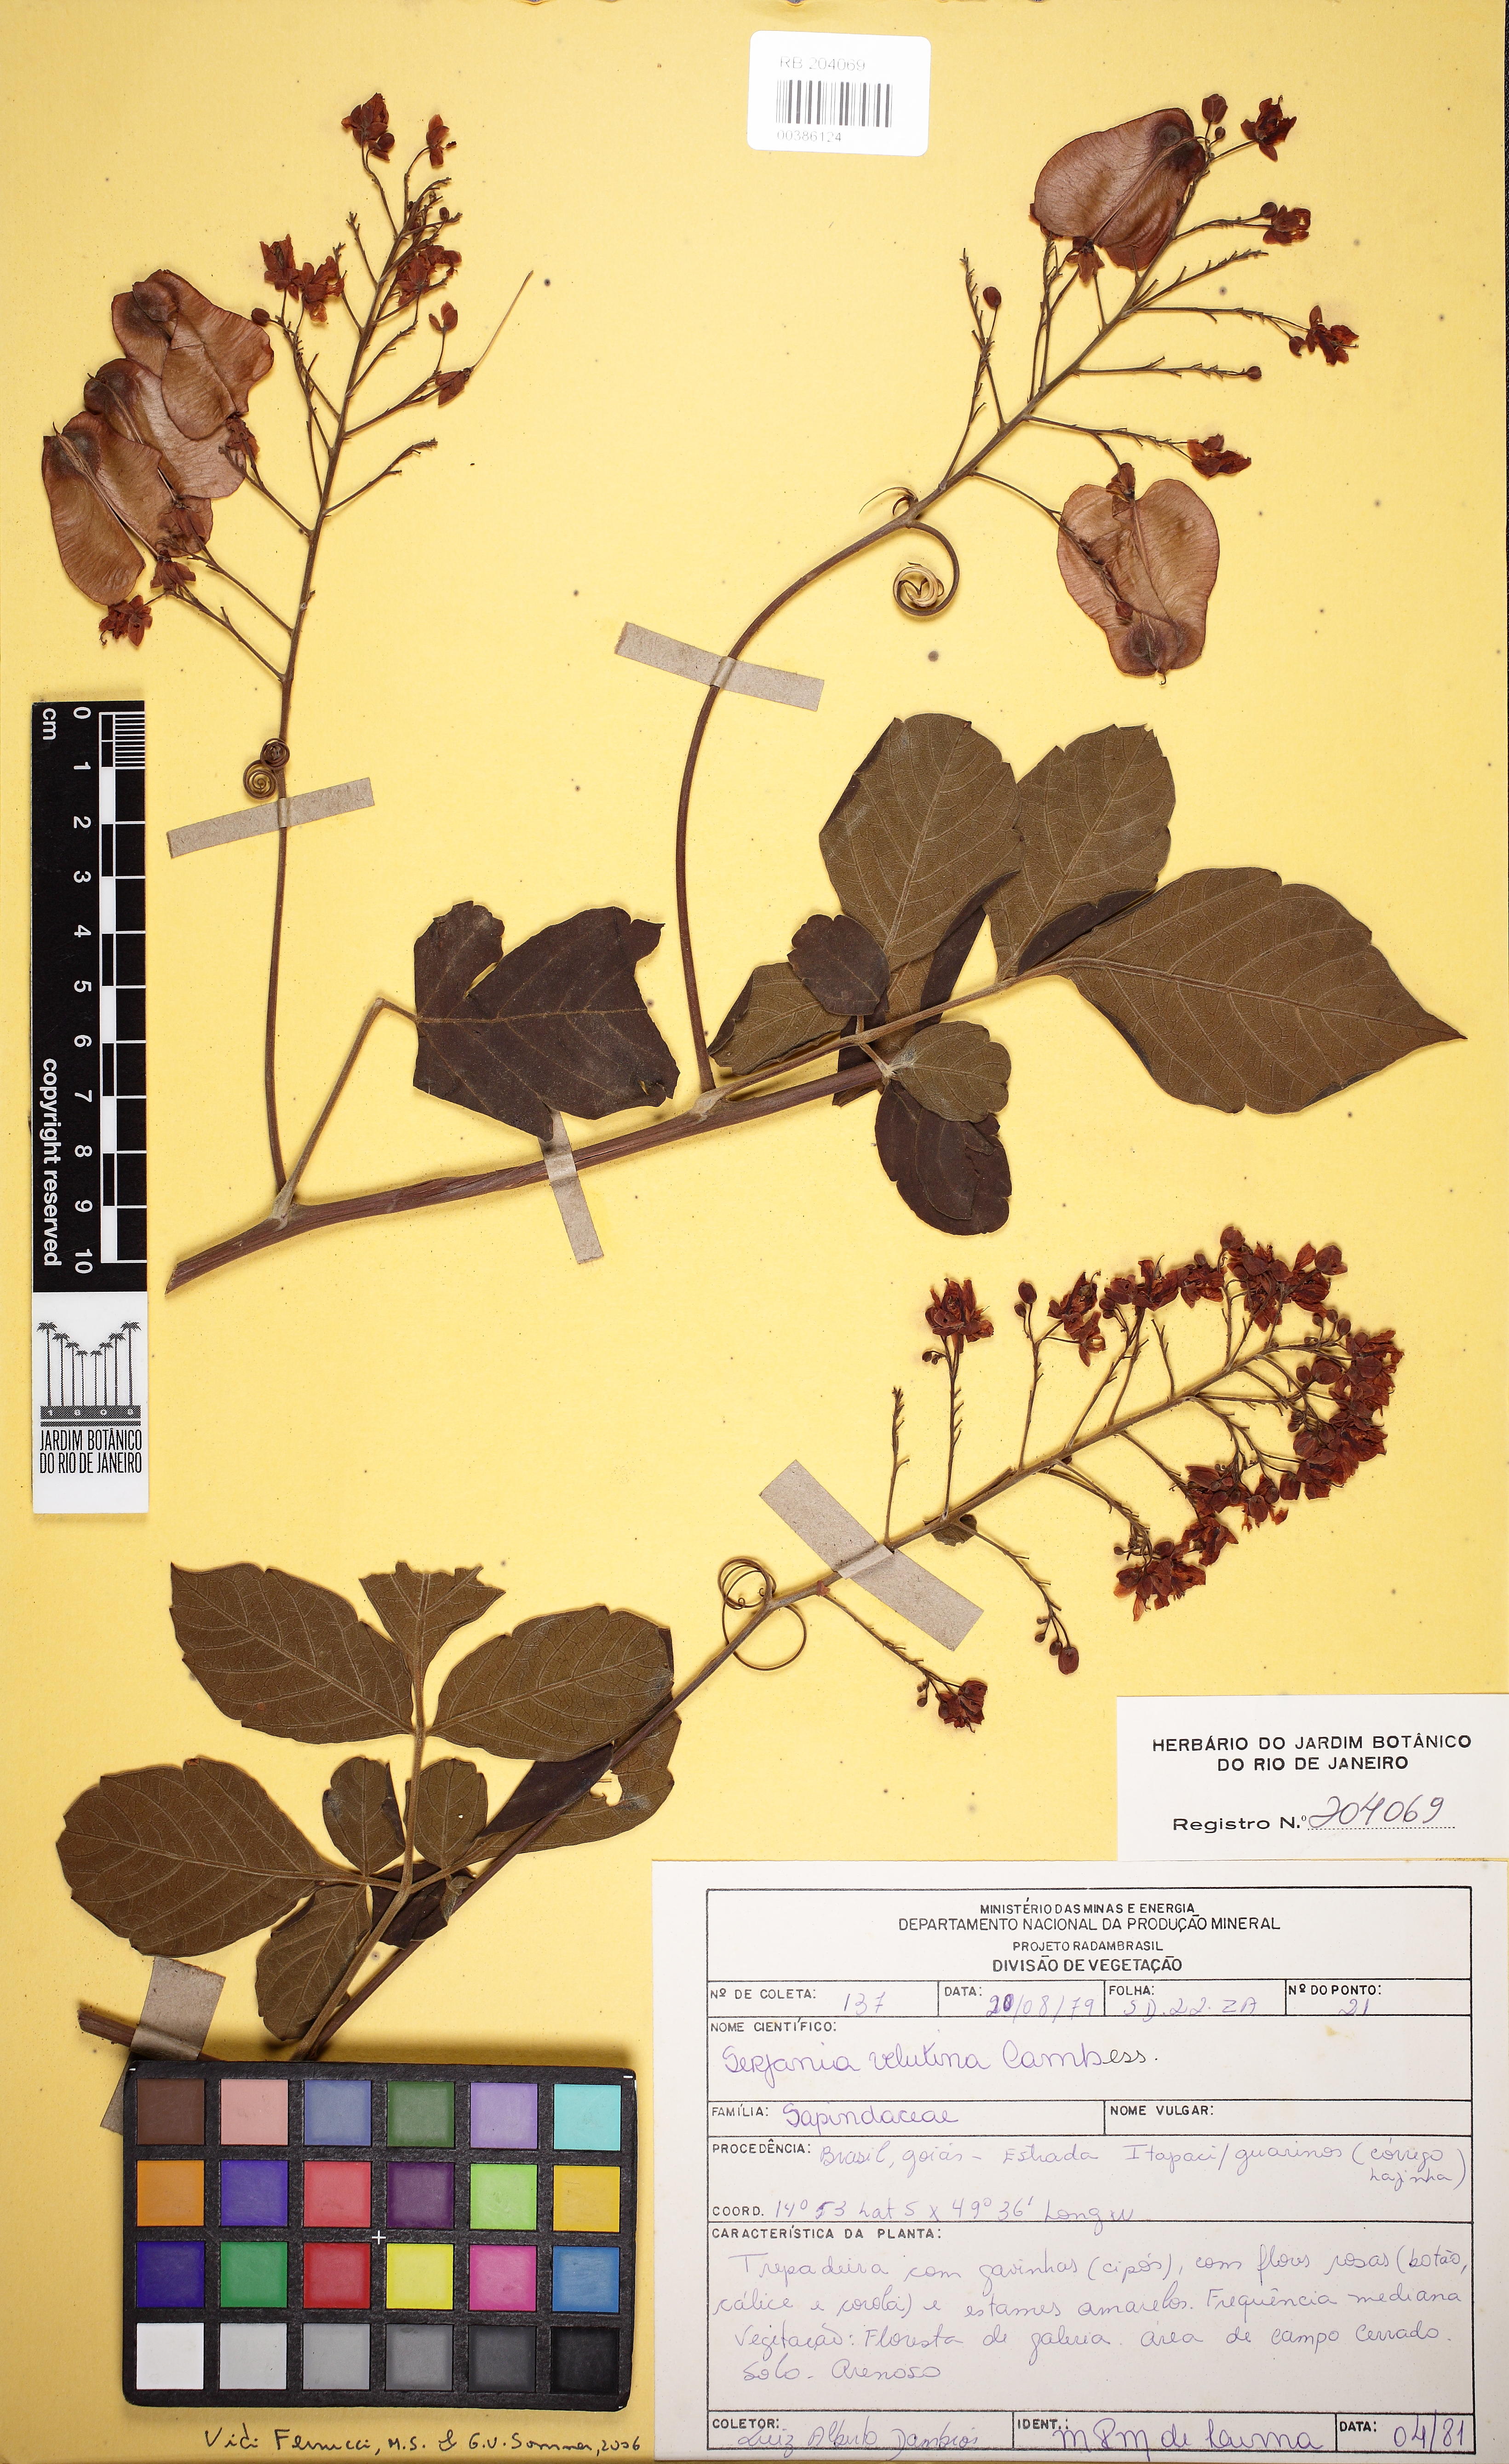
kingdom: Plantae
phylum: Tracheophyta
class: Magnoliopsida
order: Sapindales
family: Sapindaceae
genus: Serjania
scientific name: Serjania velutina
